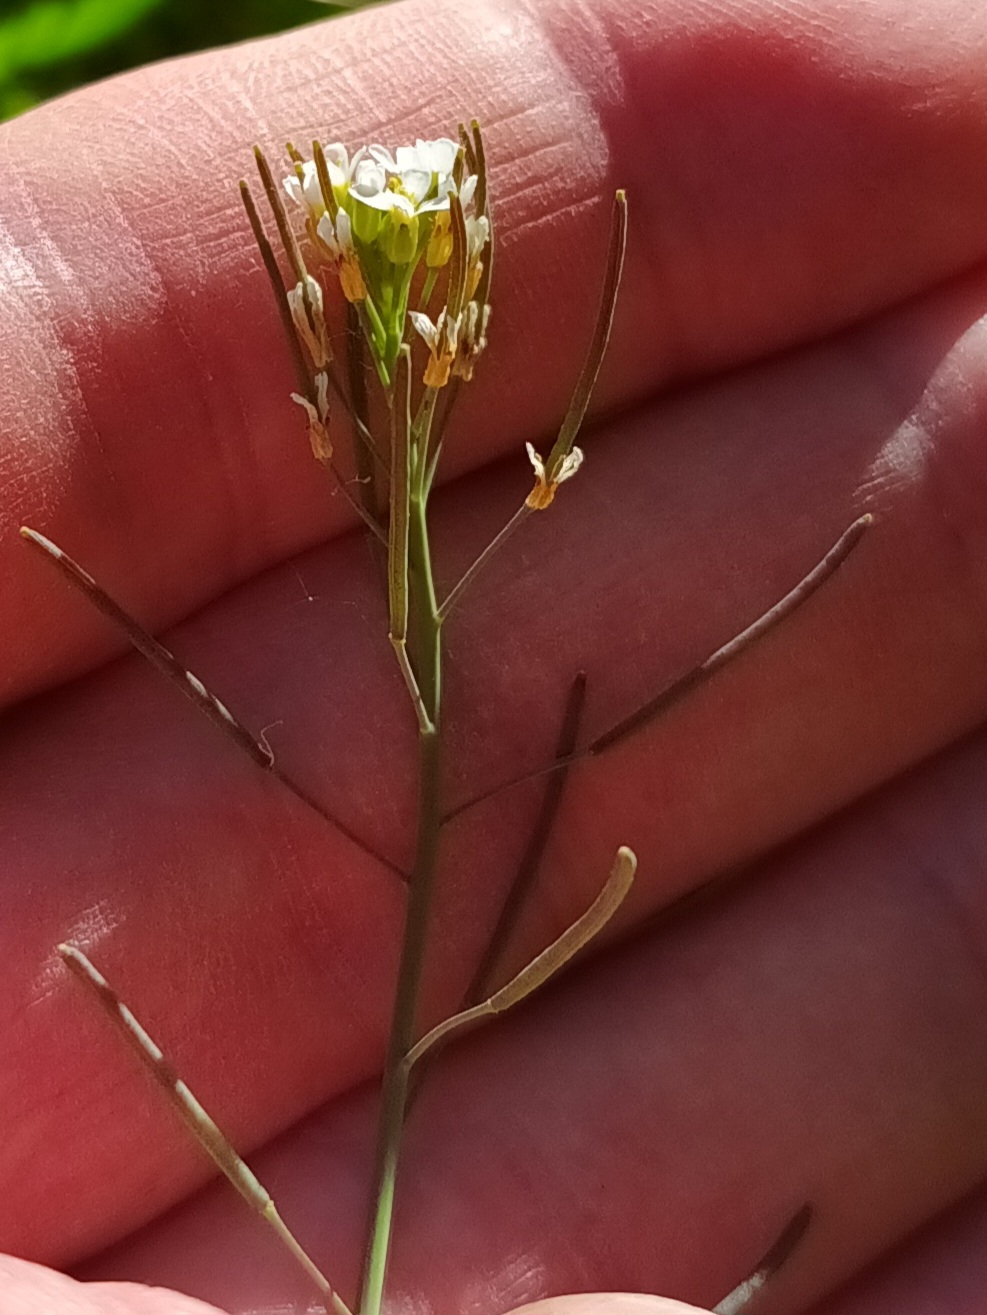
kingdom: Plantae
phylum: Tracheophyta
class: Magnoliopsida
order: Brassicales
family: Brassicaceae
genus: Arabidopsis
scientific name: Arabidopsis thaliana
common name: Almindelig gåsemad
